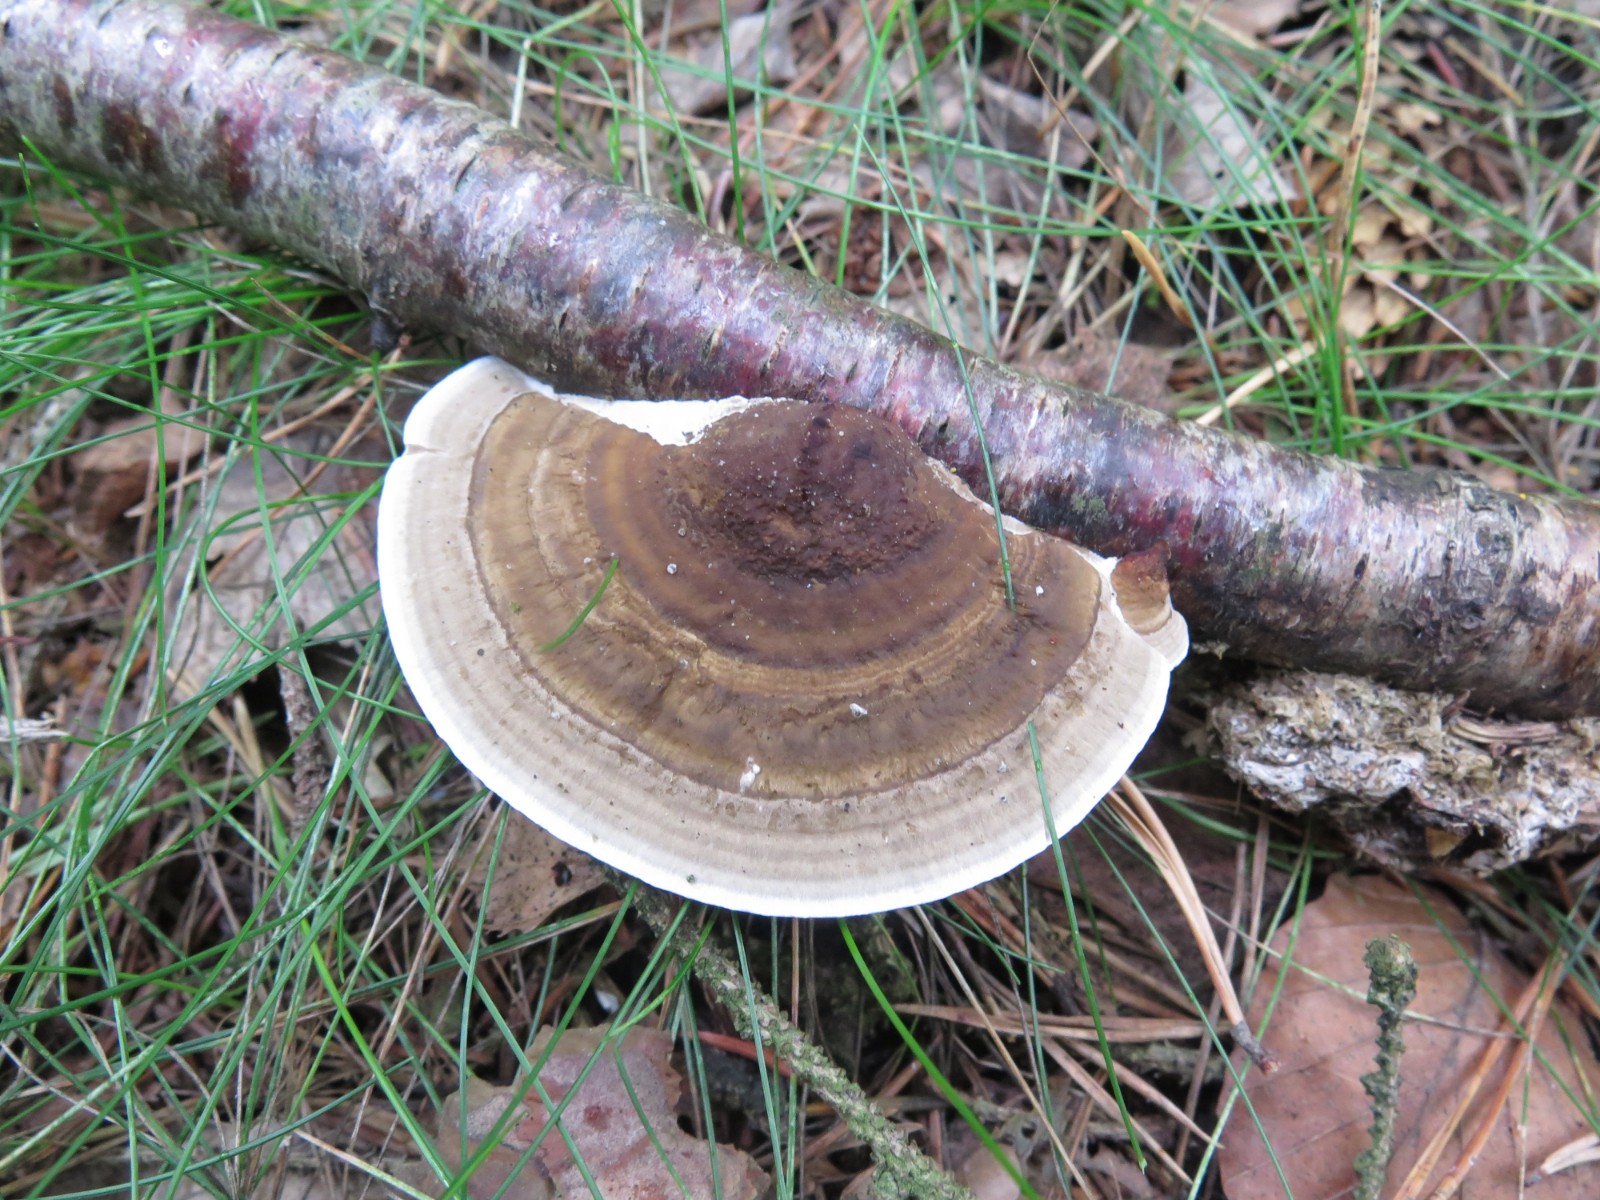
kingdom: Fungi
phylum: Basidiomycota
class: Agaricomycetes
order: Polyporales
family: Polyporaceae
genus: Daedaleopsis
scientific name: Daedaleopsis confragosa
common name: rødmende læderporesvamp
